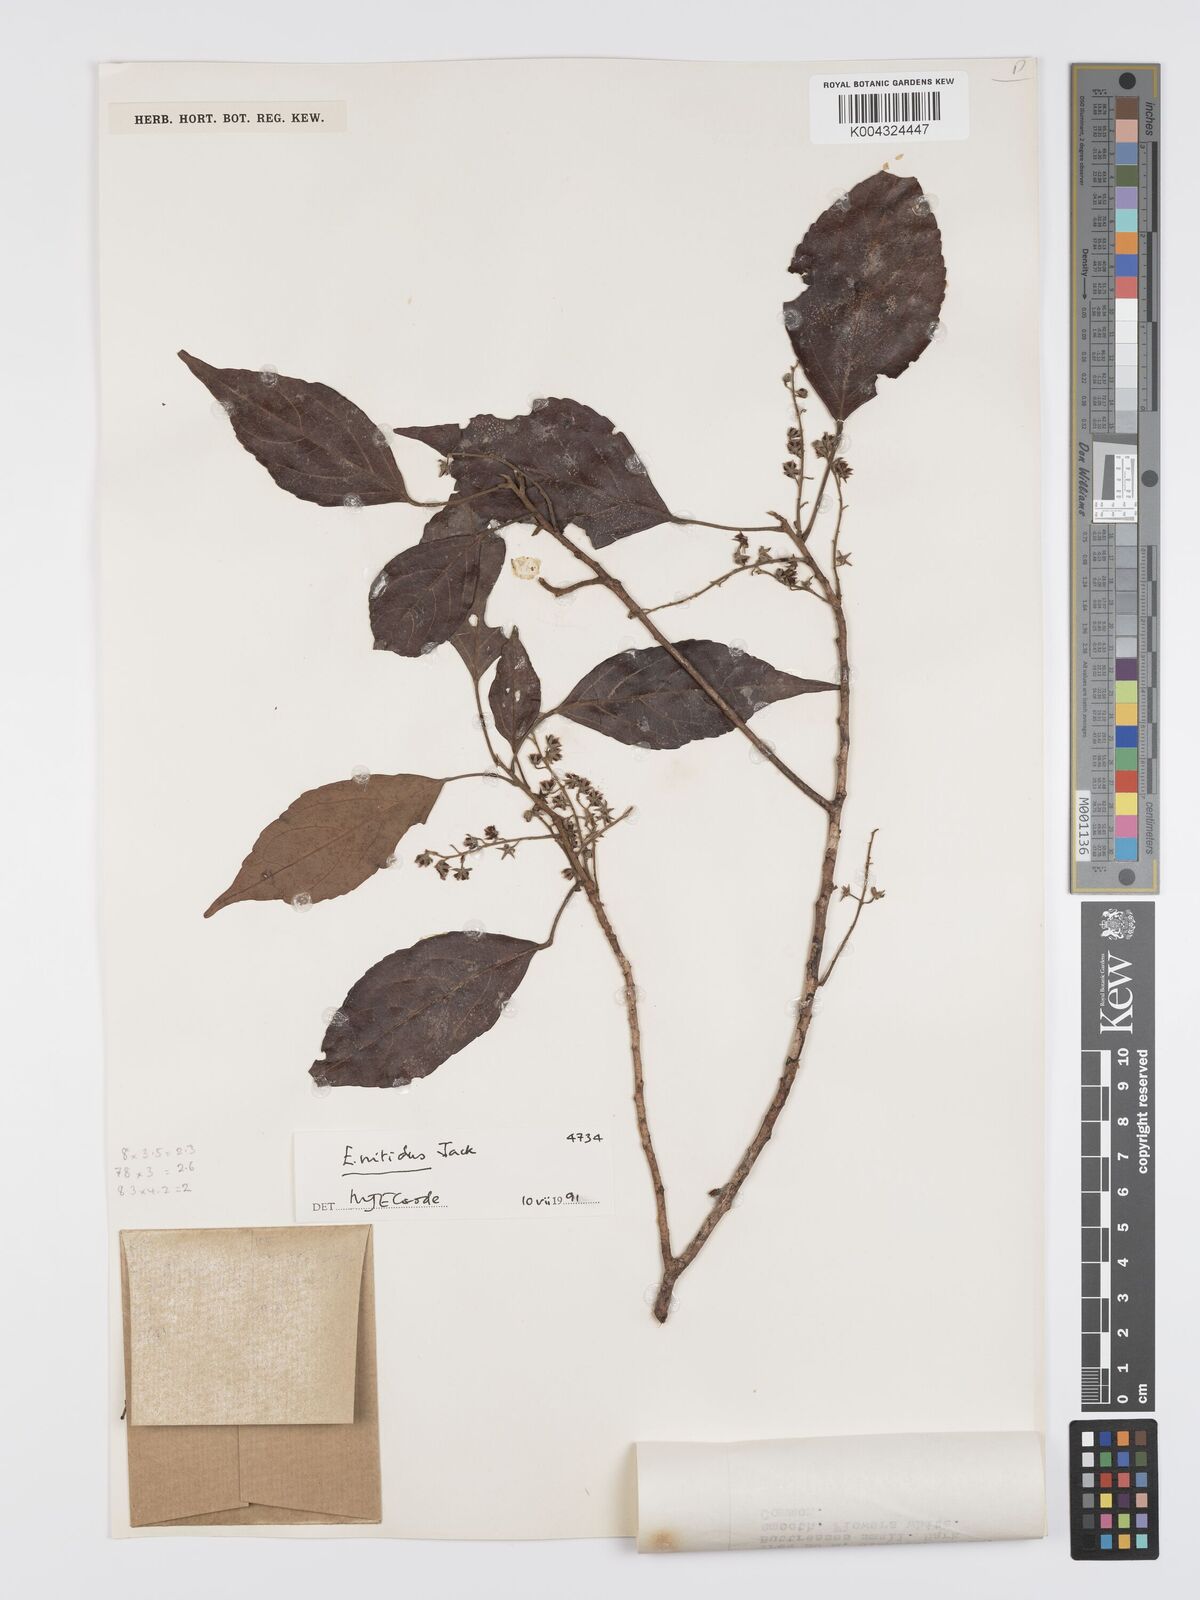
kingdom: Plantae
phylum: Tracheophyta
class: Magnoliopsida
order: Oxalidales
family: Elaeocarpaceae
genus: Elaeocarpus
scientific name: Elaeocarpus nitidus
